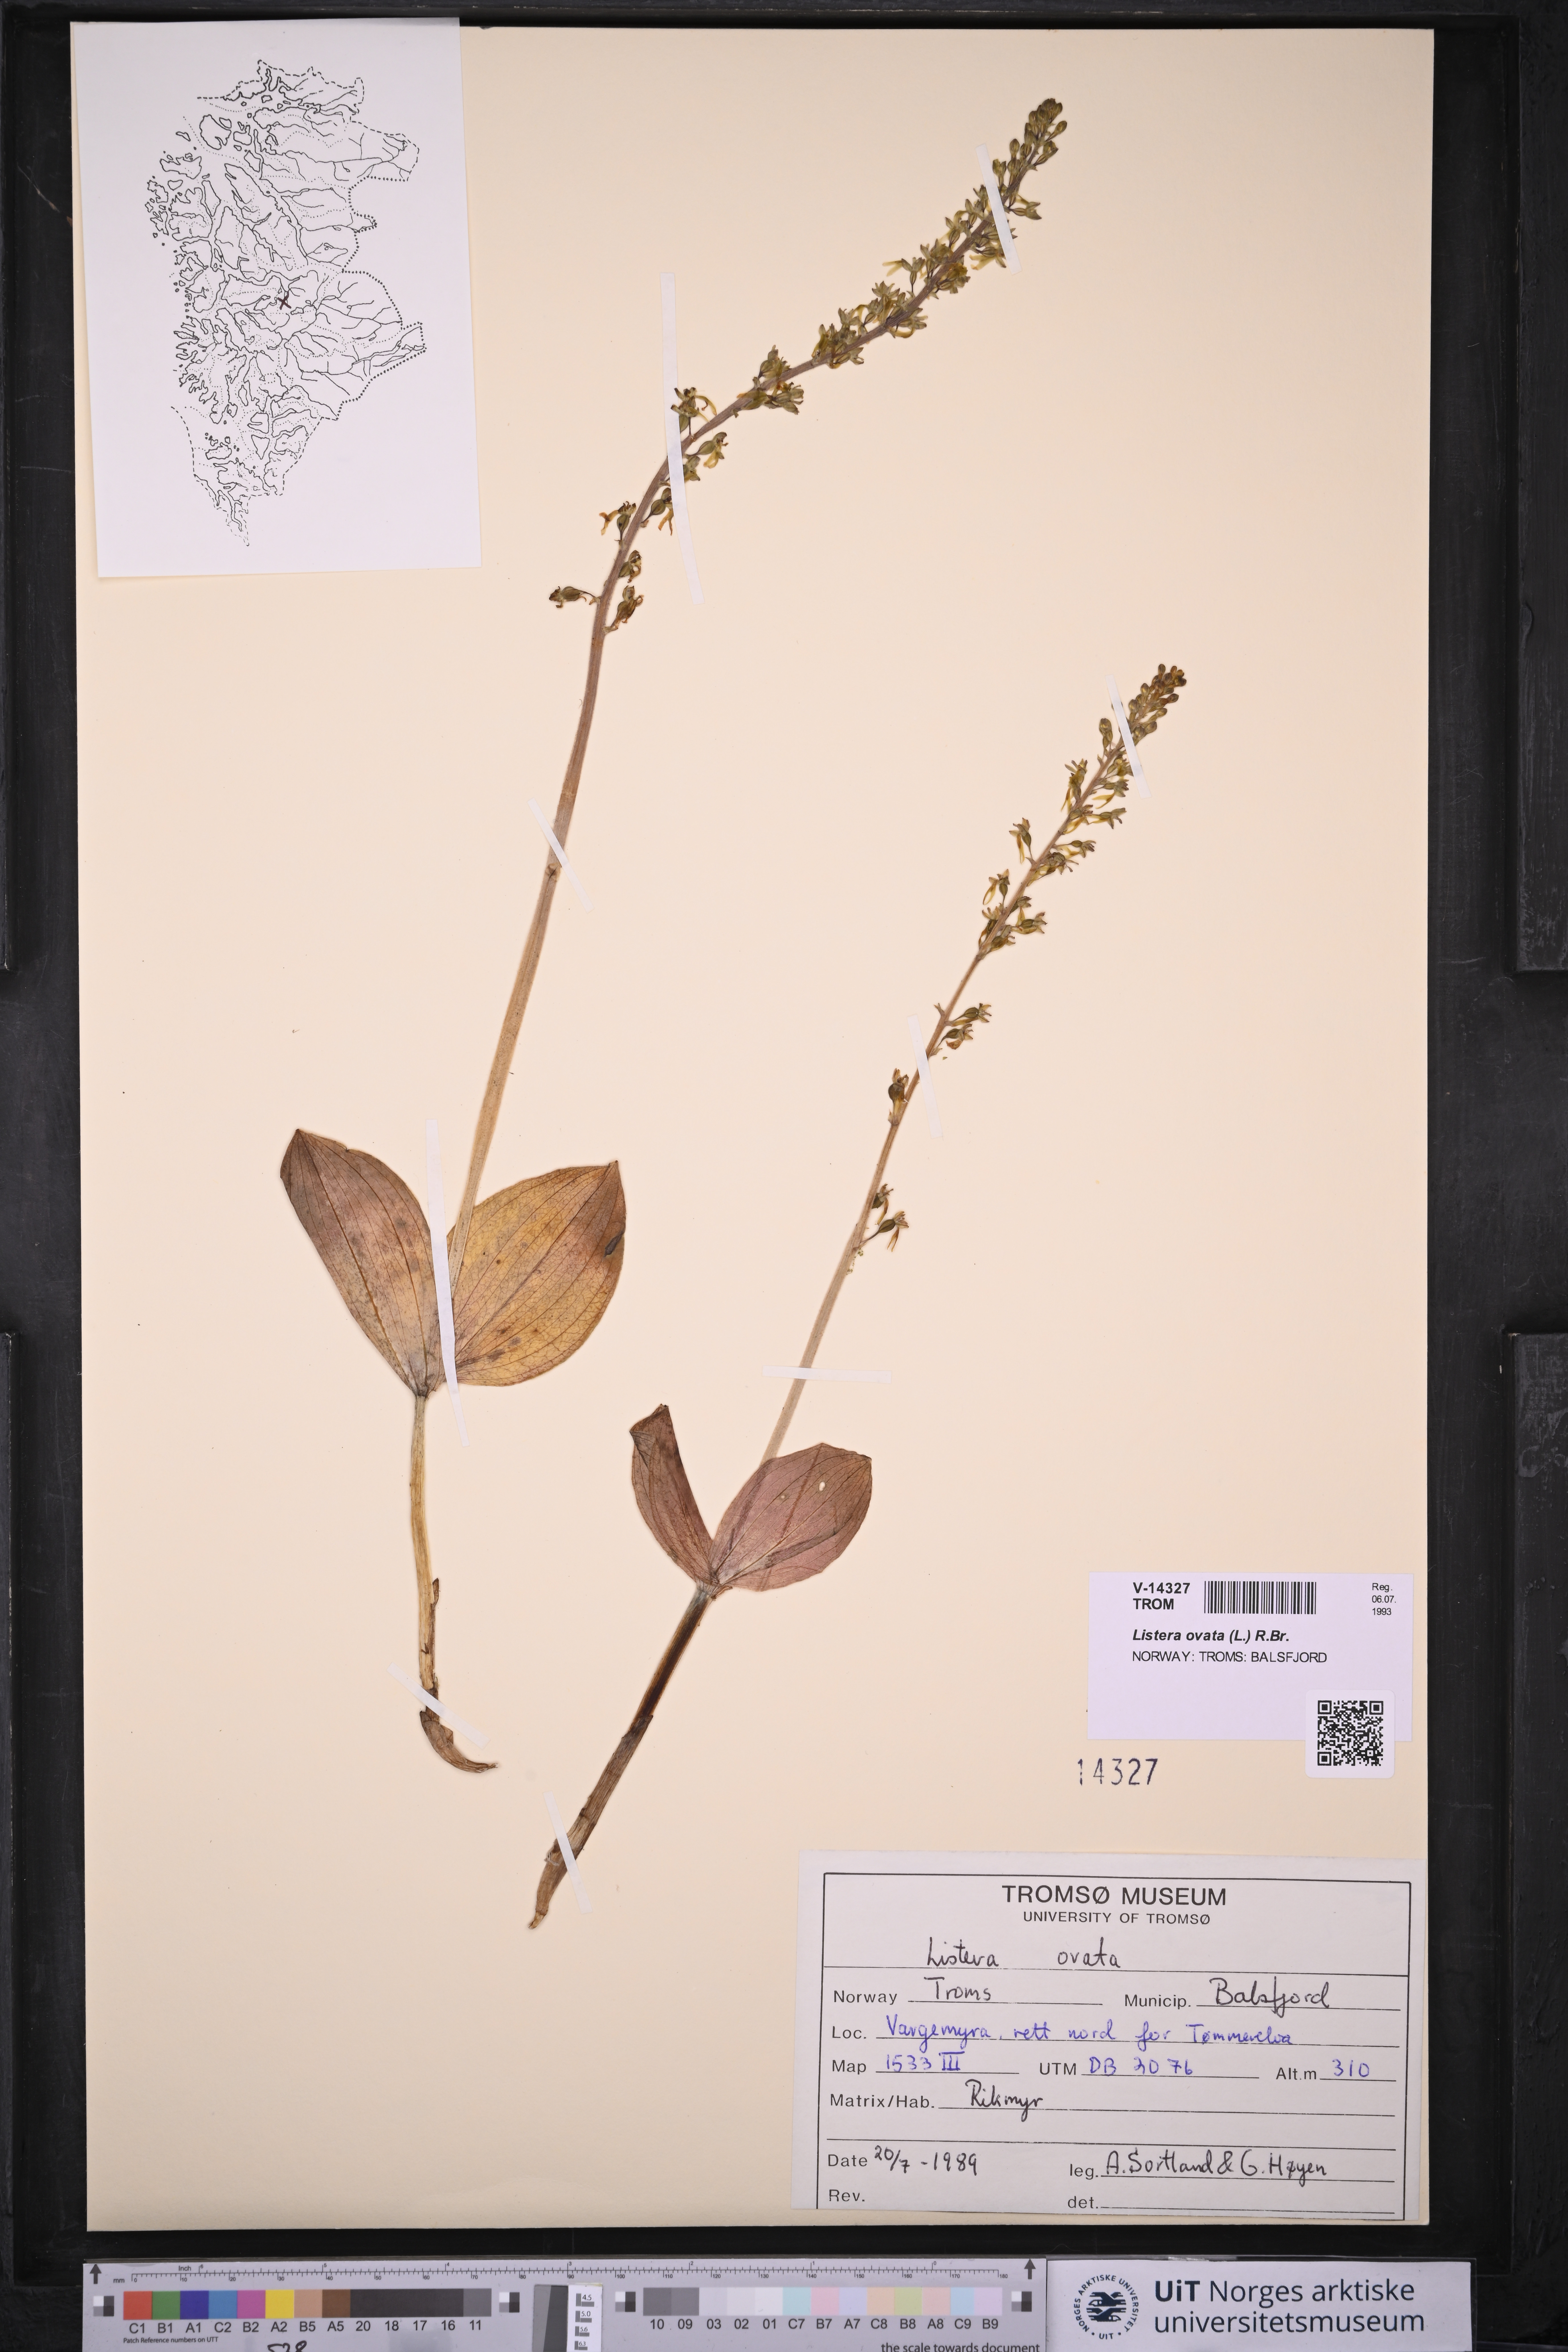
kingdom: Plantae
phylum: Tracheophyta
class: Liliopsida
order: Asparagales
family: Orchidaceae
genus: Neottia
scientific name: Neottia ovata
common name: Common twayblade
